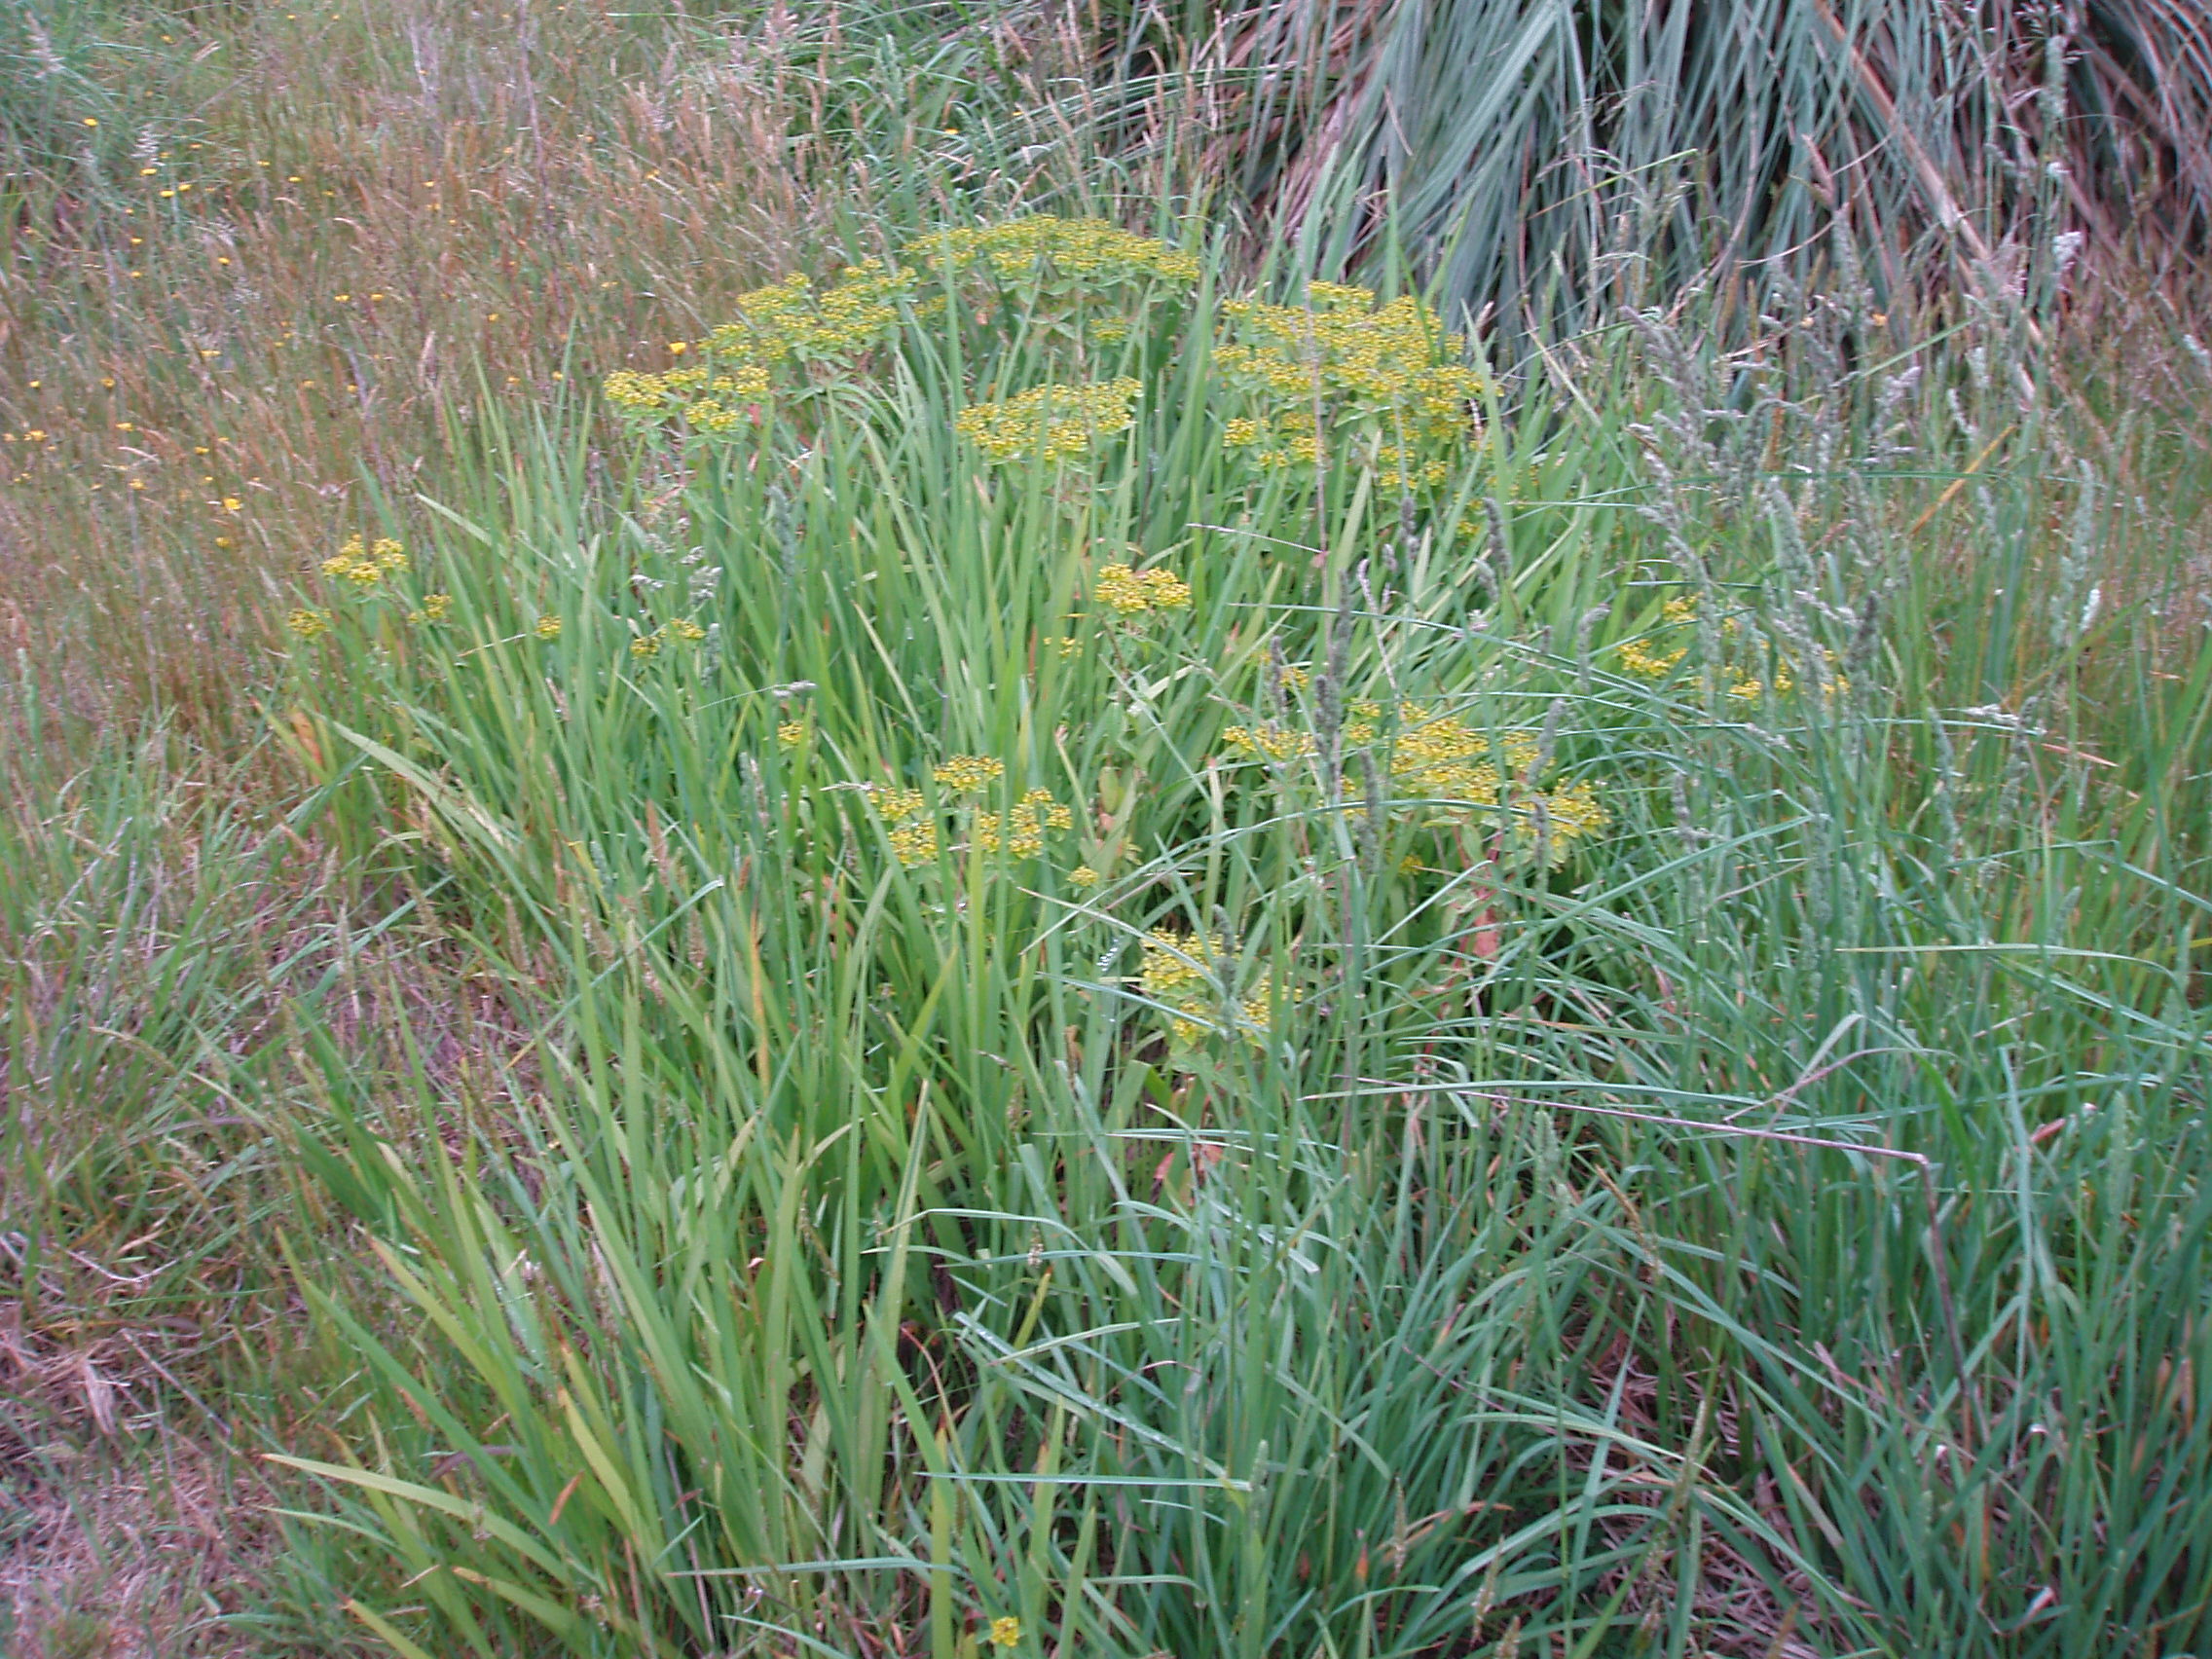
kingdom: Plantae
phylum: Tracheophyta
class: Magnoliopsida
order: Malpighiales
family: Euphorbiaceae
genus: Euphorbia
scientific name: Euphorbia oblongata
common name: Balkan spurge
